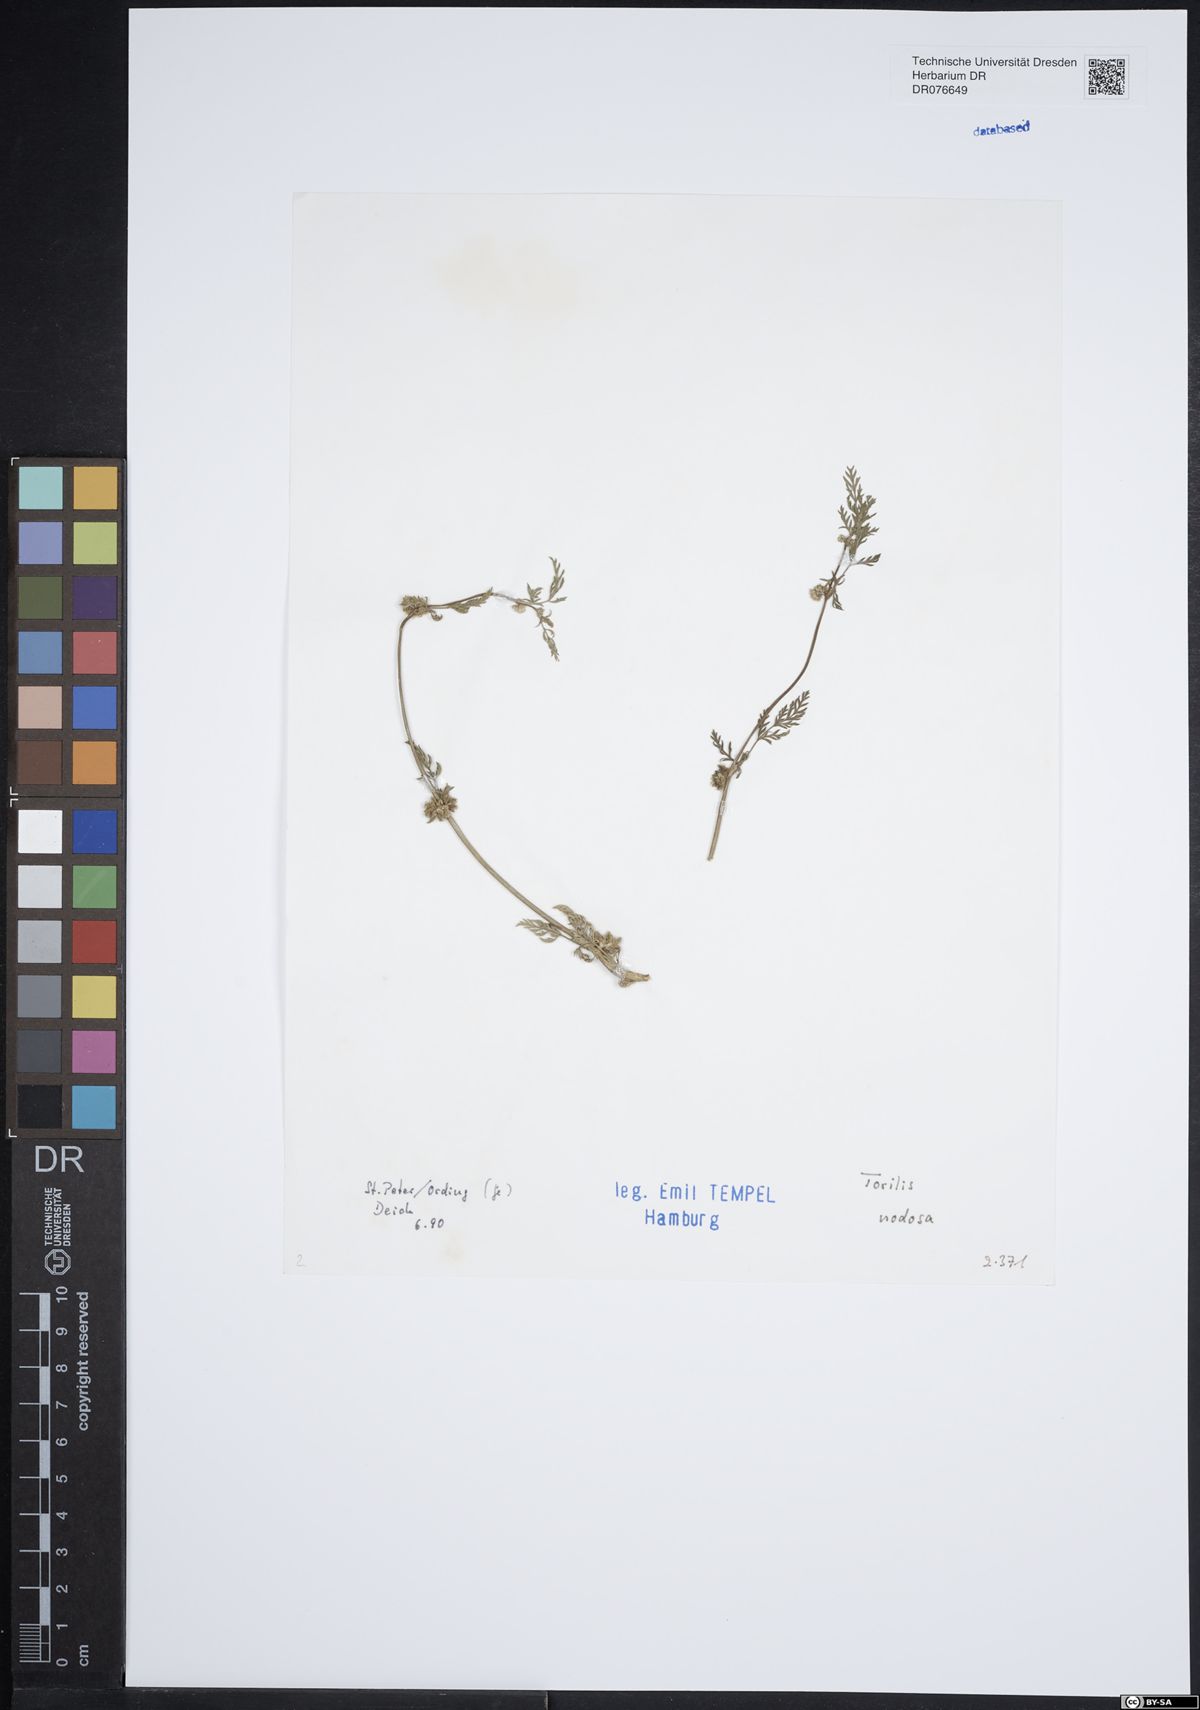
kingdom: Plantae
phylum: Tracheophyta
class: Magnoliopsida
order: Apiales
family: Apiaceae
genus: Torilis
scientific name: Torilis nodosa
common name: Knotted hedge-parsley
